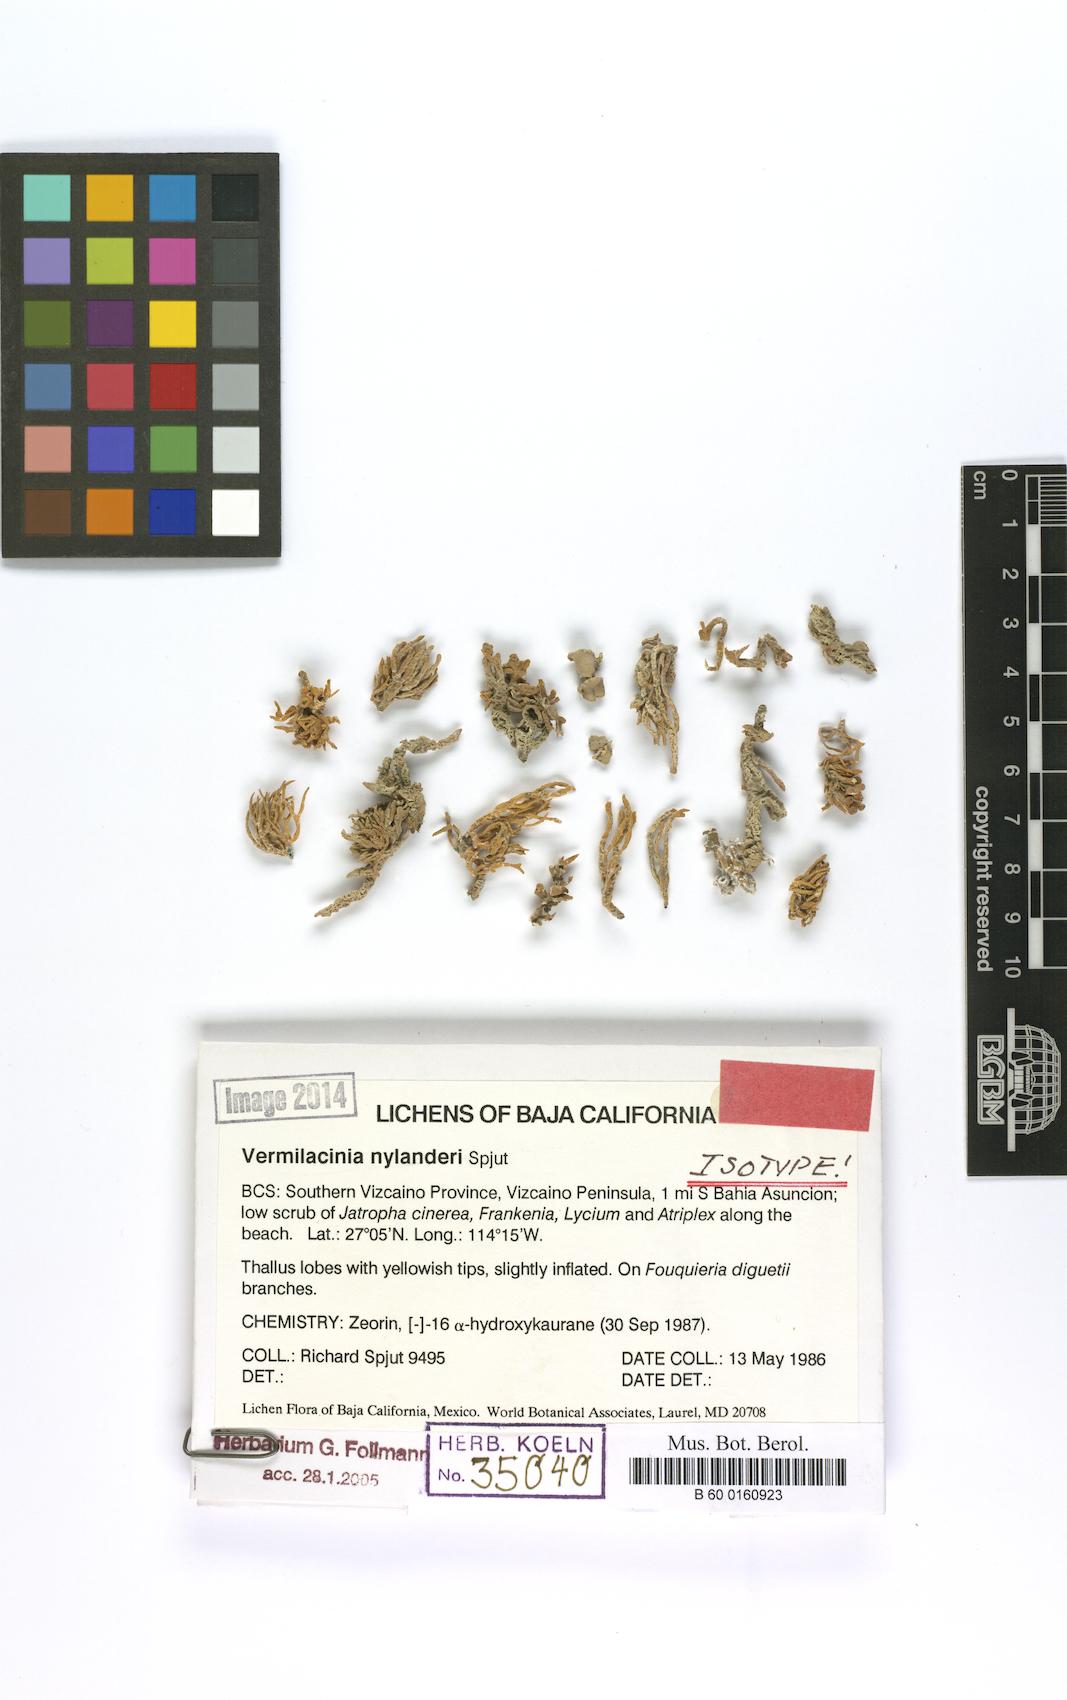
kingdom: Fungi
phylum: Ascomycota
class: Lecanoromycetes
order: Lecanorales
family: Ramalinaceae
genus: Vermilacinia
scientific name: Vermilacinia
